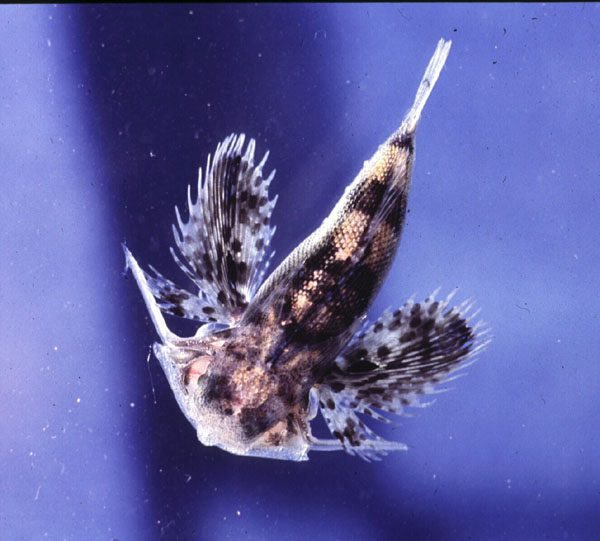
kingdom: Animalia
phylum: Chordata
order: Scorpaeniformes
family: Dactylopteridae
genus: Dactyloptena
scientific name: Dactyloptena peterseni
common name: Starry helmet gurnard
